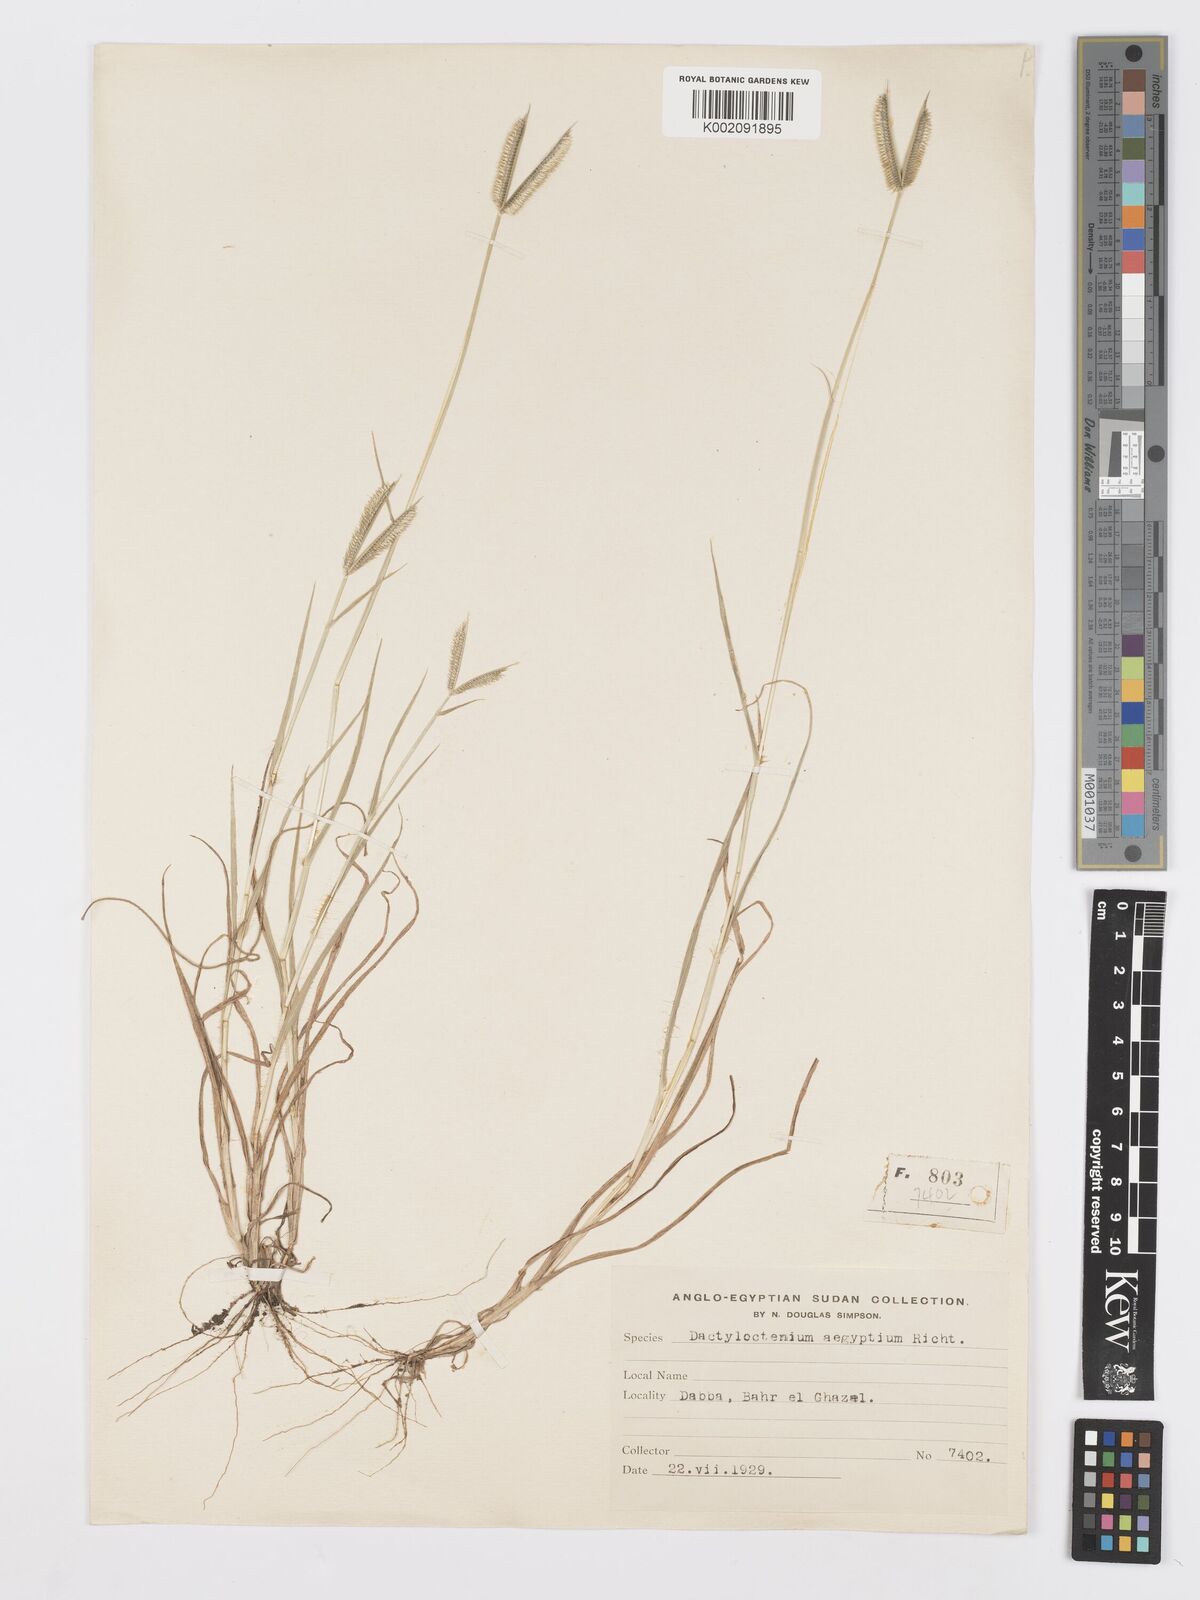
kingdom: Plantae
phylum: Tracheophyta
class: Liliopsida
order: Poales
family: Poaceae
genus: Dactyloctenium
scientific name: Dactyloctenium aegyptium
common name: Egyptian grass
